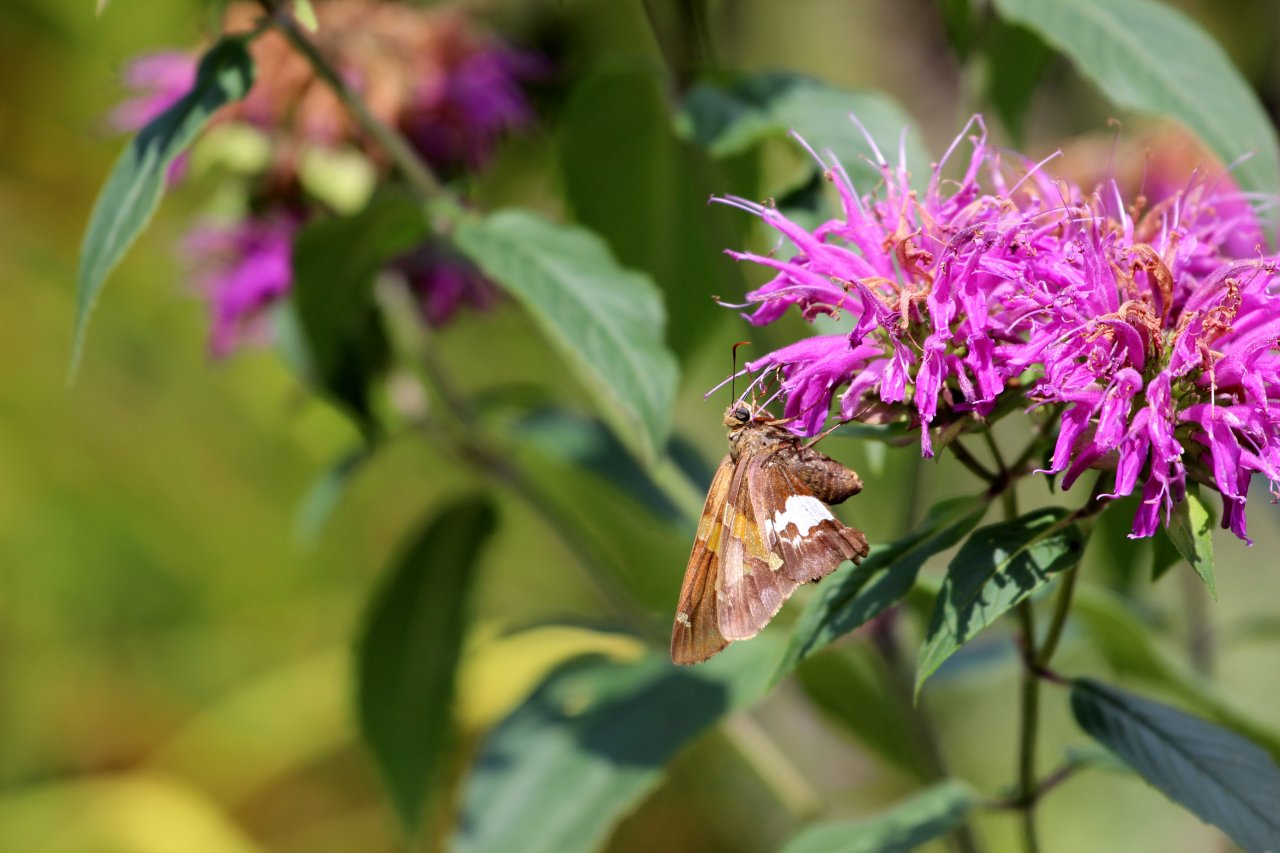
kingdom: Animalia
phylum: Arthropoda
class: Insecta
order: Lepidoptera
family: Hesperiidae
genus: Epargyreus
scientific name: Epargyreus clarus
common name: Silver-spotted Skipper
